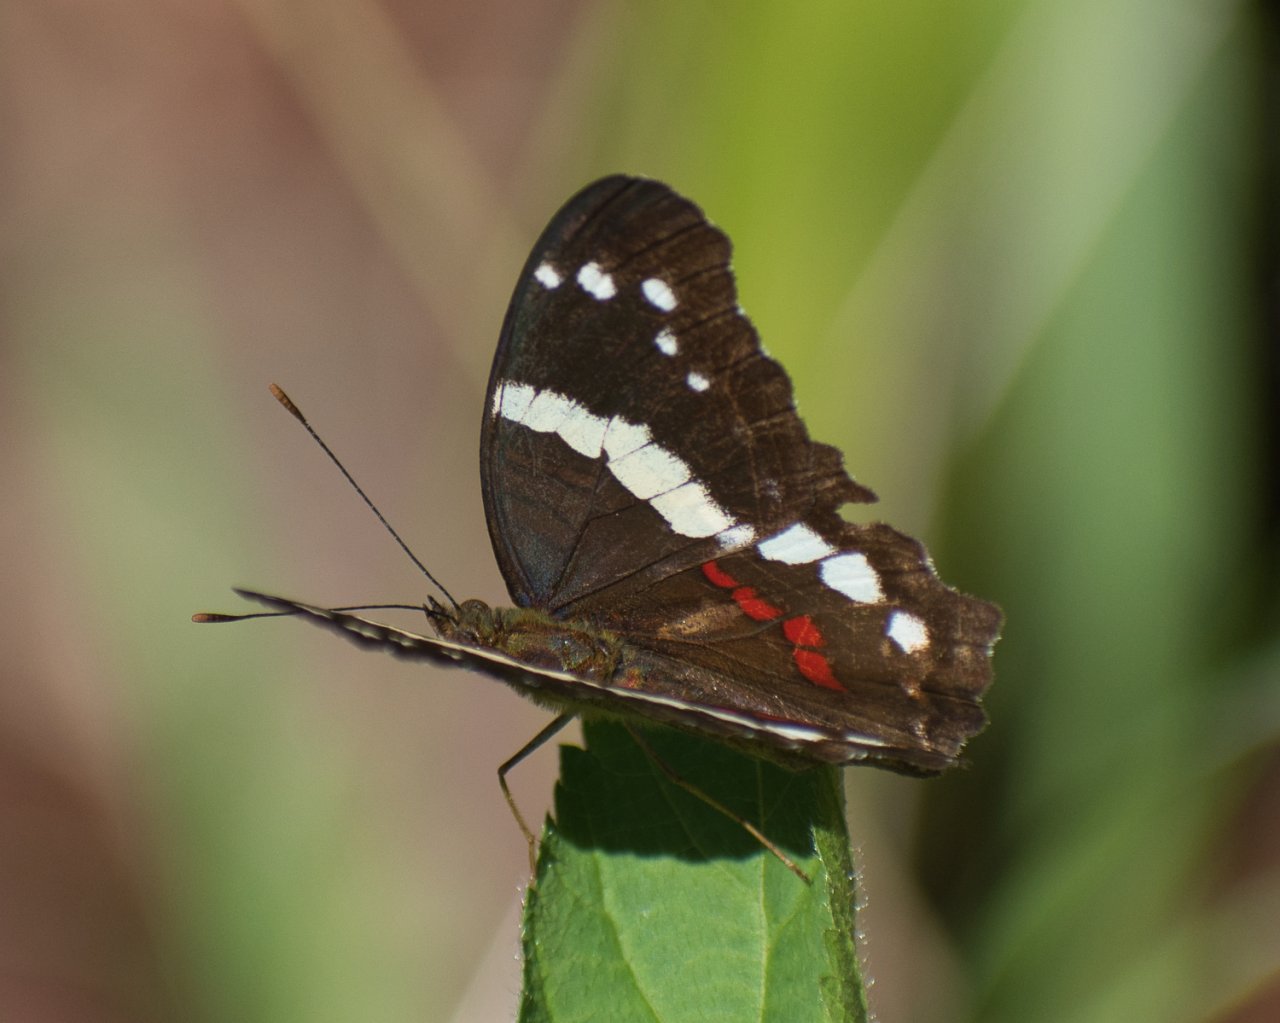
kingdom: Animalia
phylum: Arthropoda
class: Insecta
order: Lepidoptera
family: Nymphalidae
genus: Anartia
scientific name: Anartia fatima
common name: Banded Peacock
